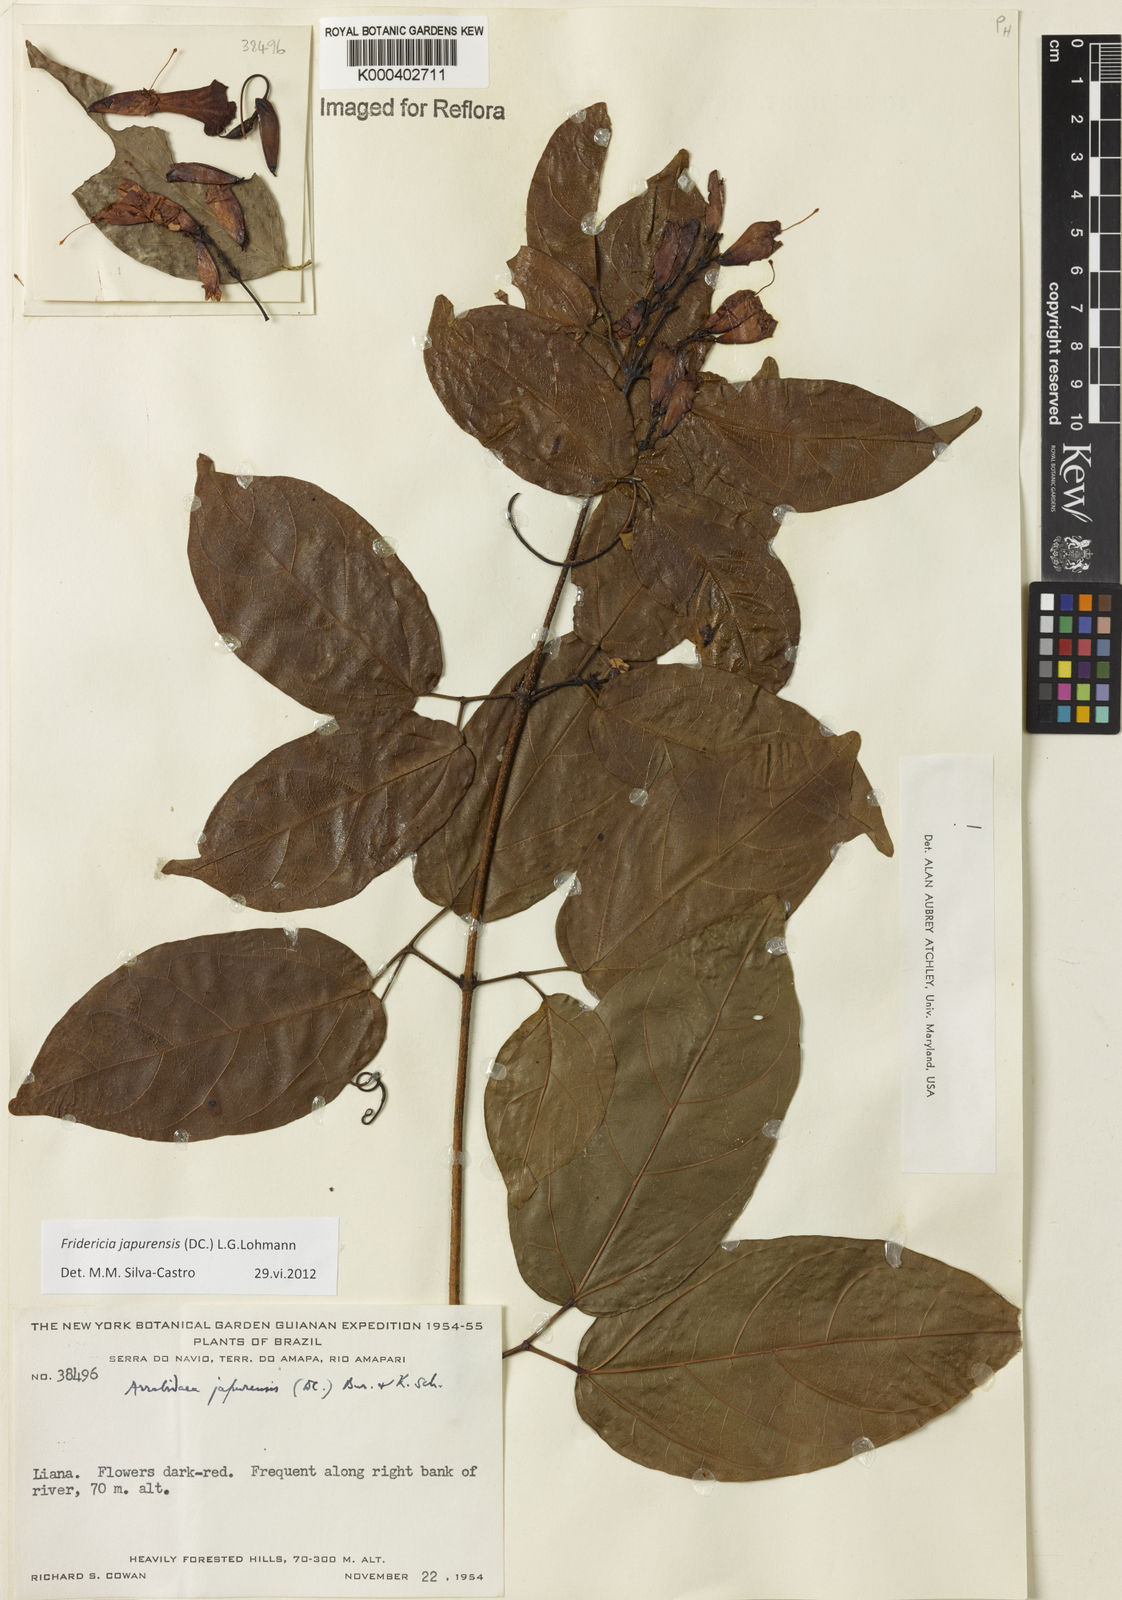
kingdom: Plantae
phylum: Tracheophyta
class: Magnoliopsida
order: Lamiales
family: Bignoniaceae
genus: Fridericia
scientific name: Fridericia japurensis
